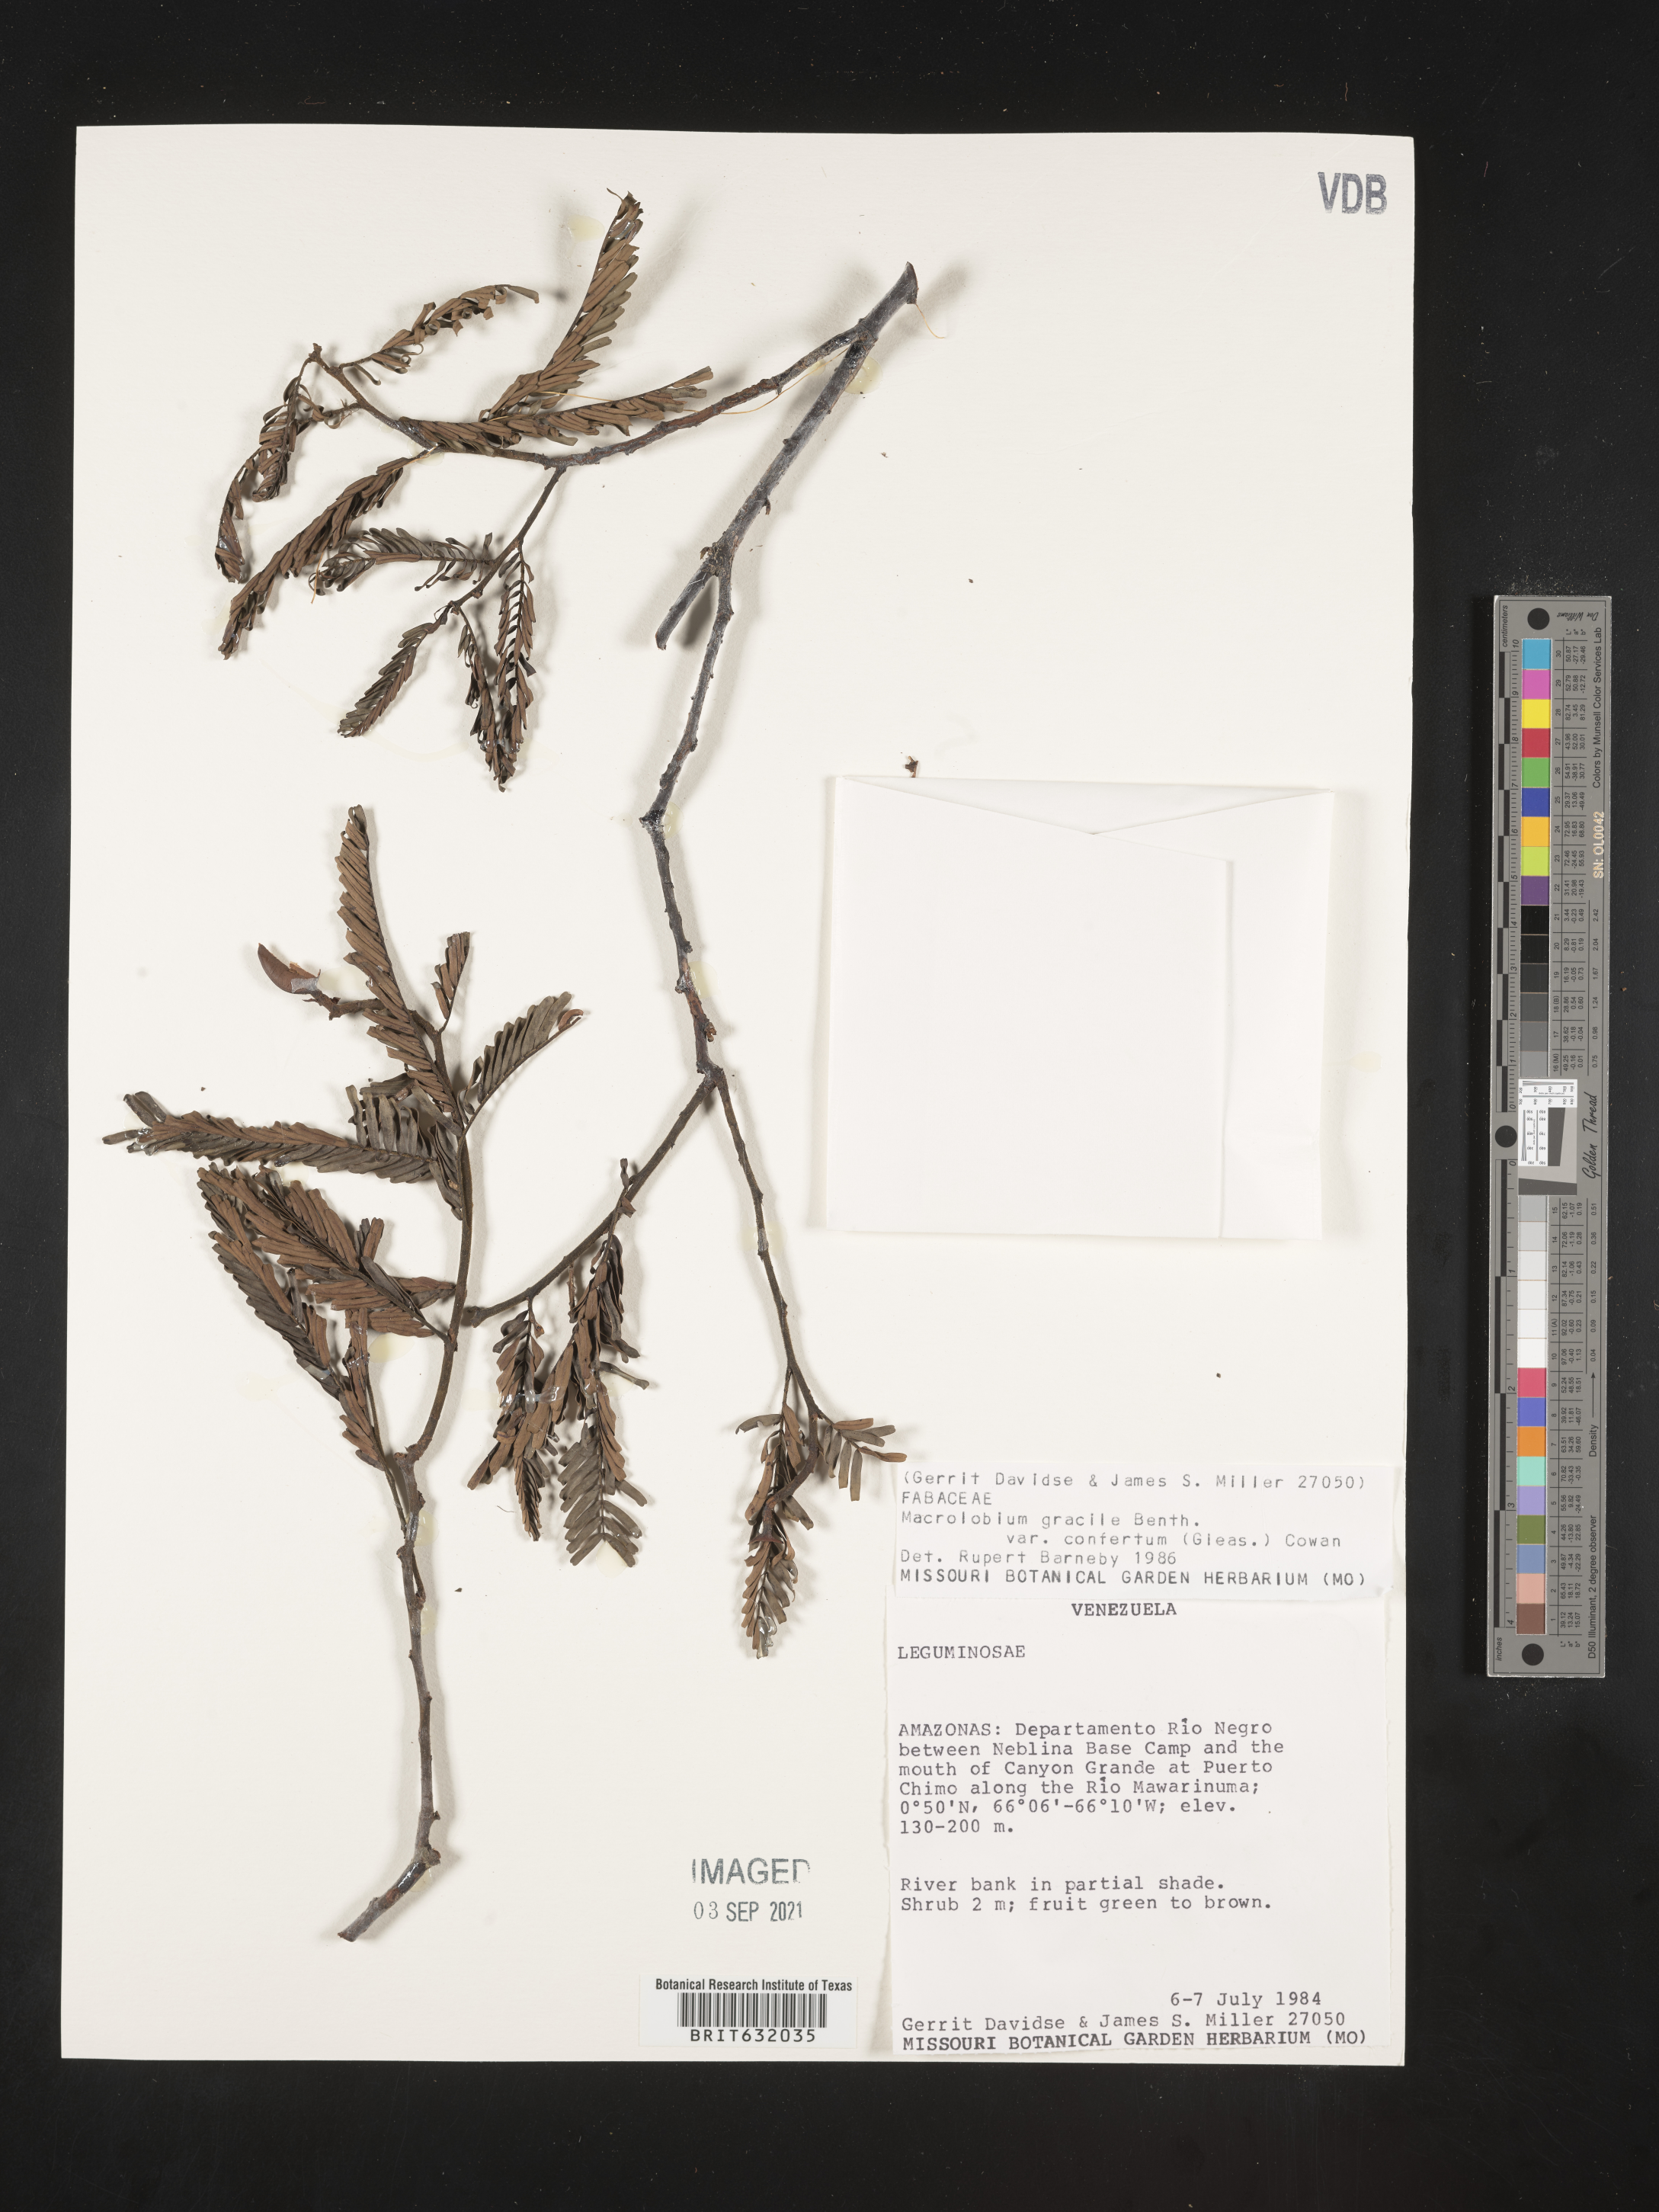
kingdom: Plantae
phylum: Tracheophyta
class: Magnoliopsida
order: Fabales
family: Fabaceae
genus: Macrolobium
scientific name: Macrolobium
